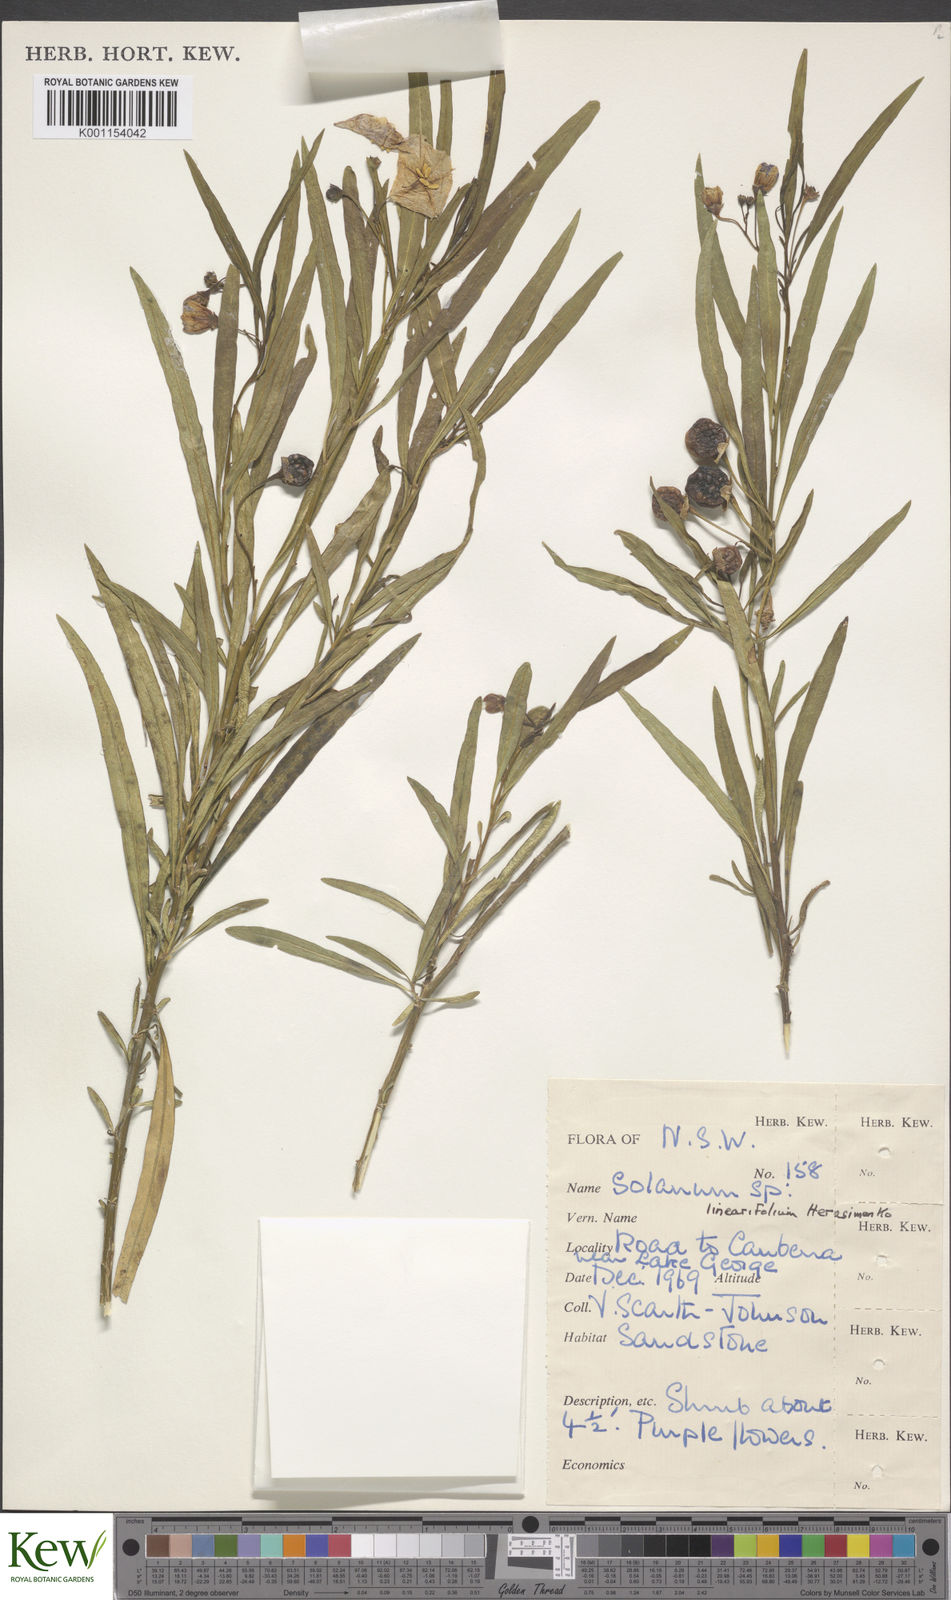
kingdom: Plantae
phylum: Tracheophyta
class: Magnoliopsida
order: Solanales
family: Solanaceae
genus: Solanum
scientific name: Solanum linearifolium
